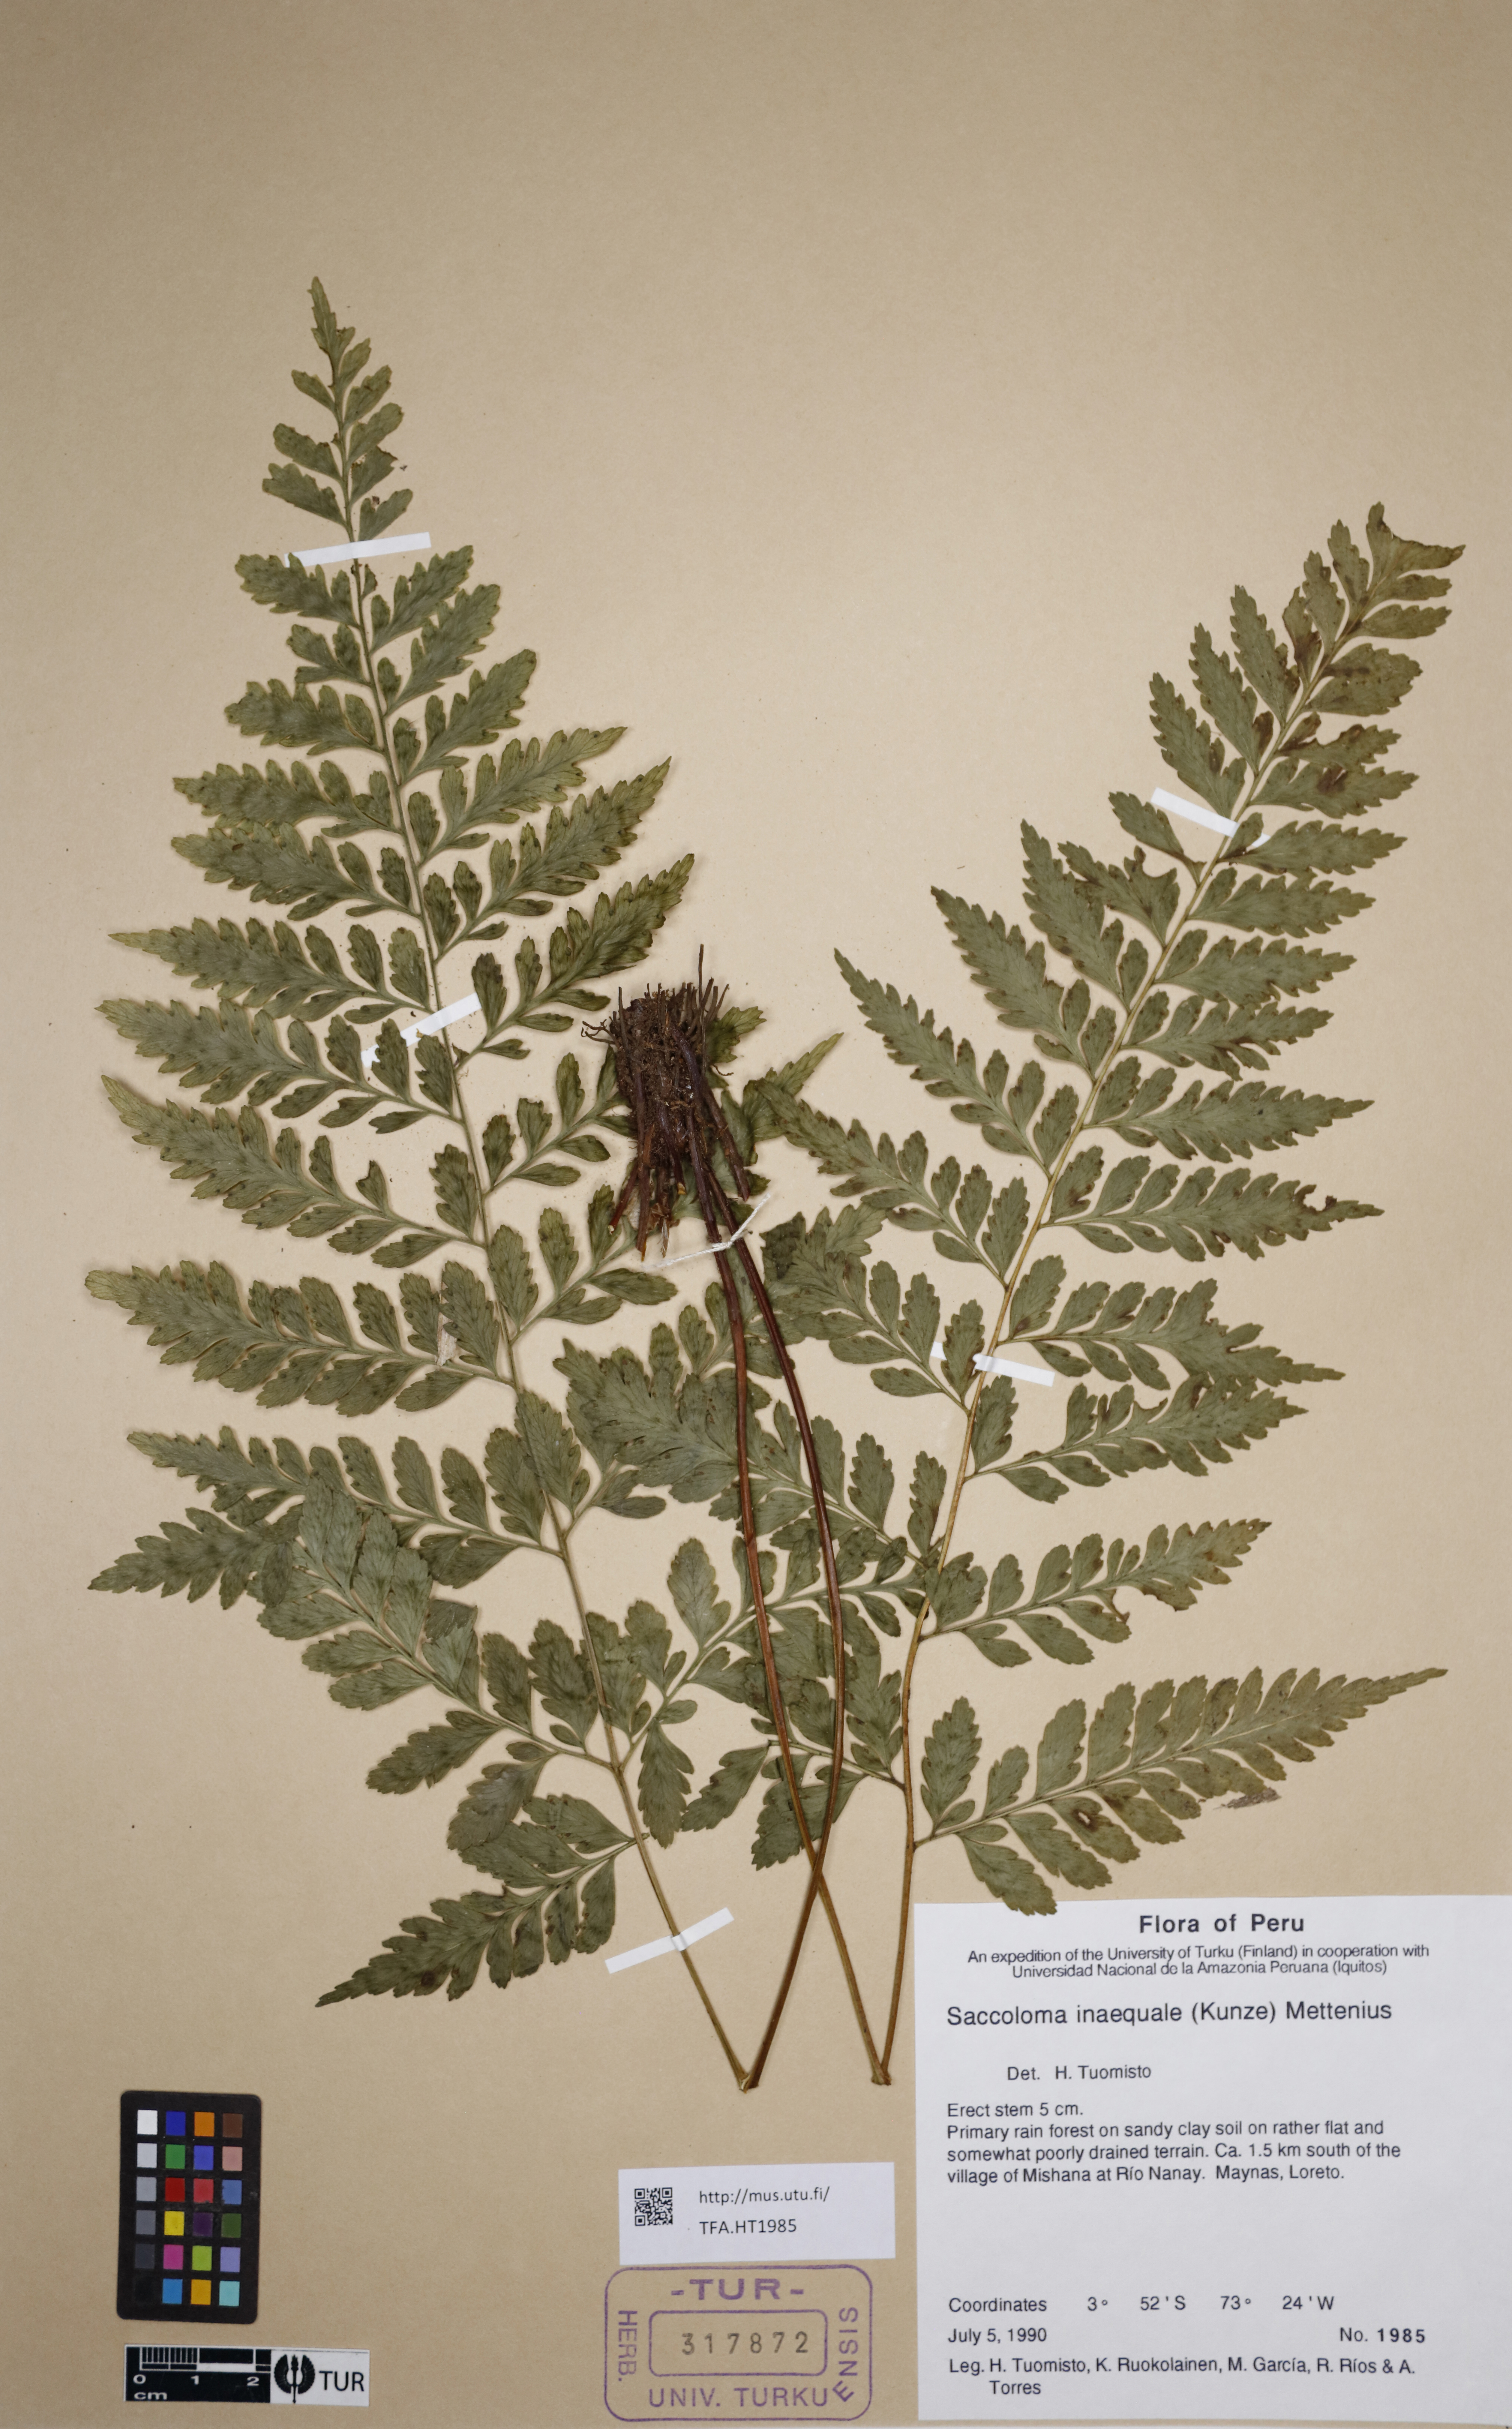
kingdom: Plantae
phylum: Tracheophyta
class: Polypodiopsida
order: Polypodiales
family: Saccolomataceae
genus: Saccoloma
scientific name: Saccoloma inaequale
